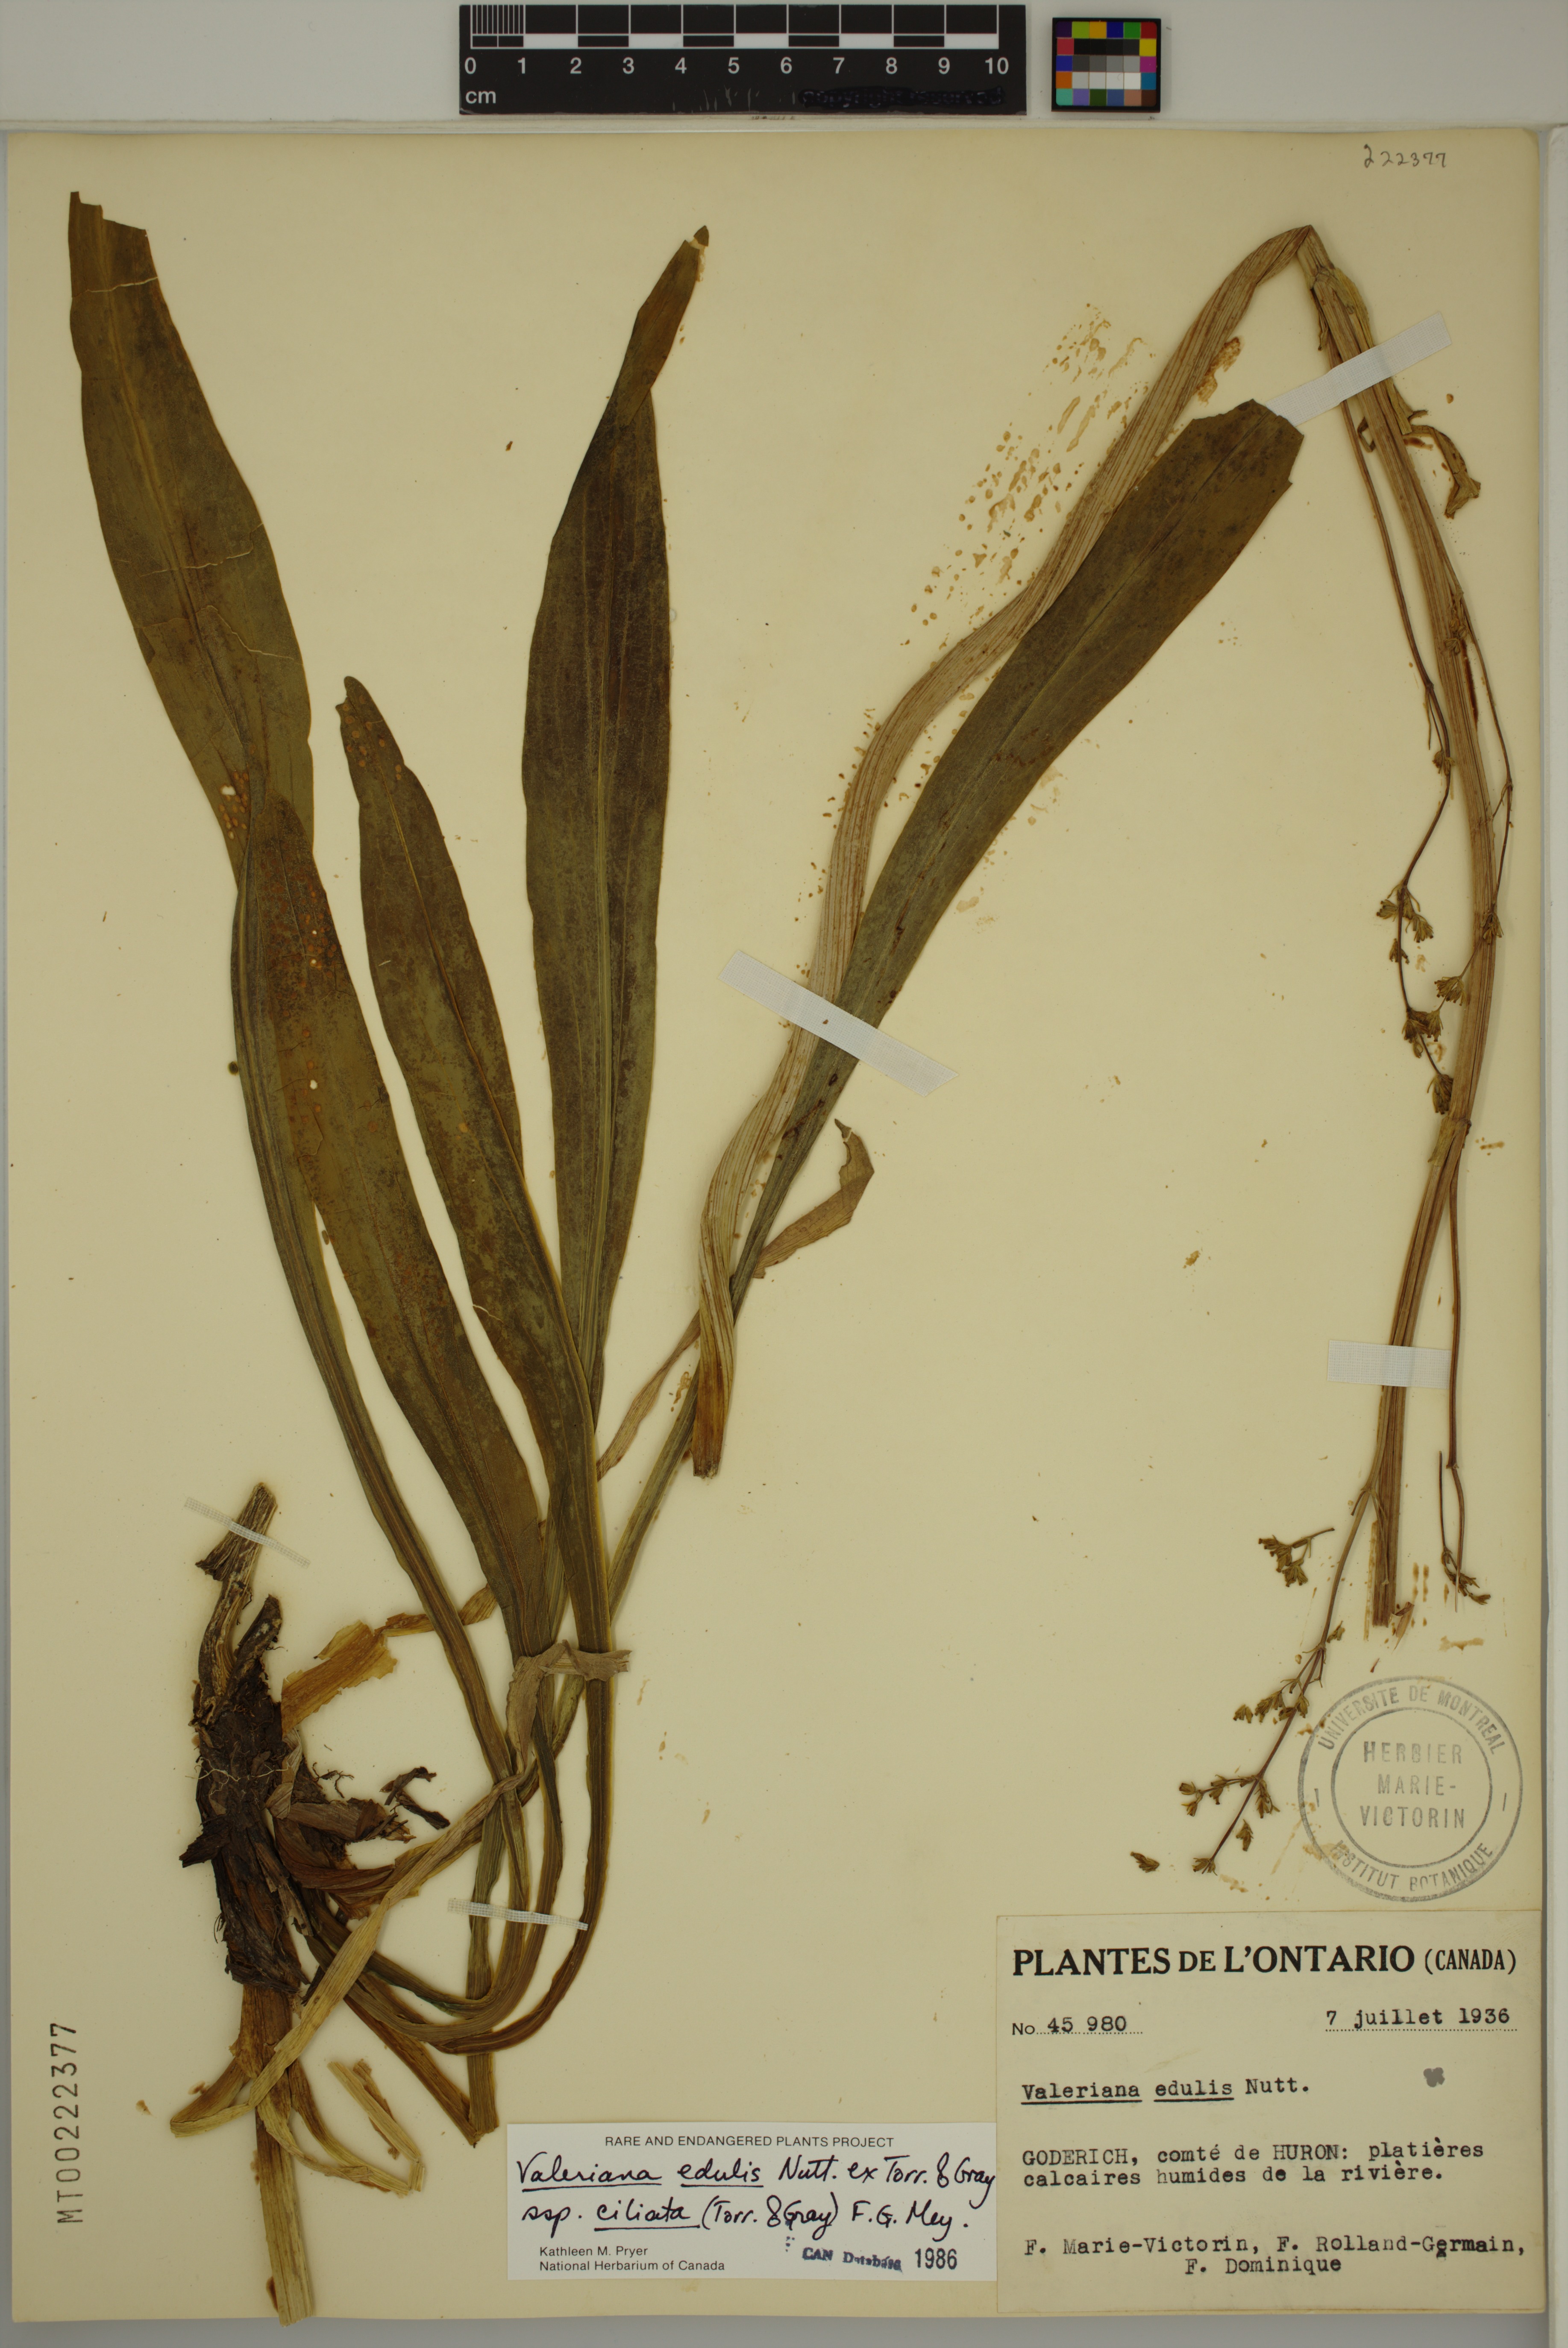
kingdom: Plantae
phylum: Tracheophyta
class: Magnoliopsida
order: Dipsacales
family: Caprifoliaceae
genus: Valeriana
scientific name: Valeriana edulis
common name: Taproot valerian
